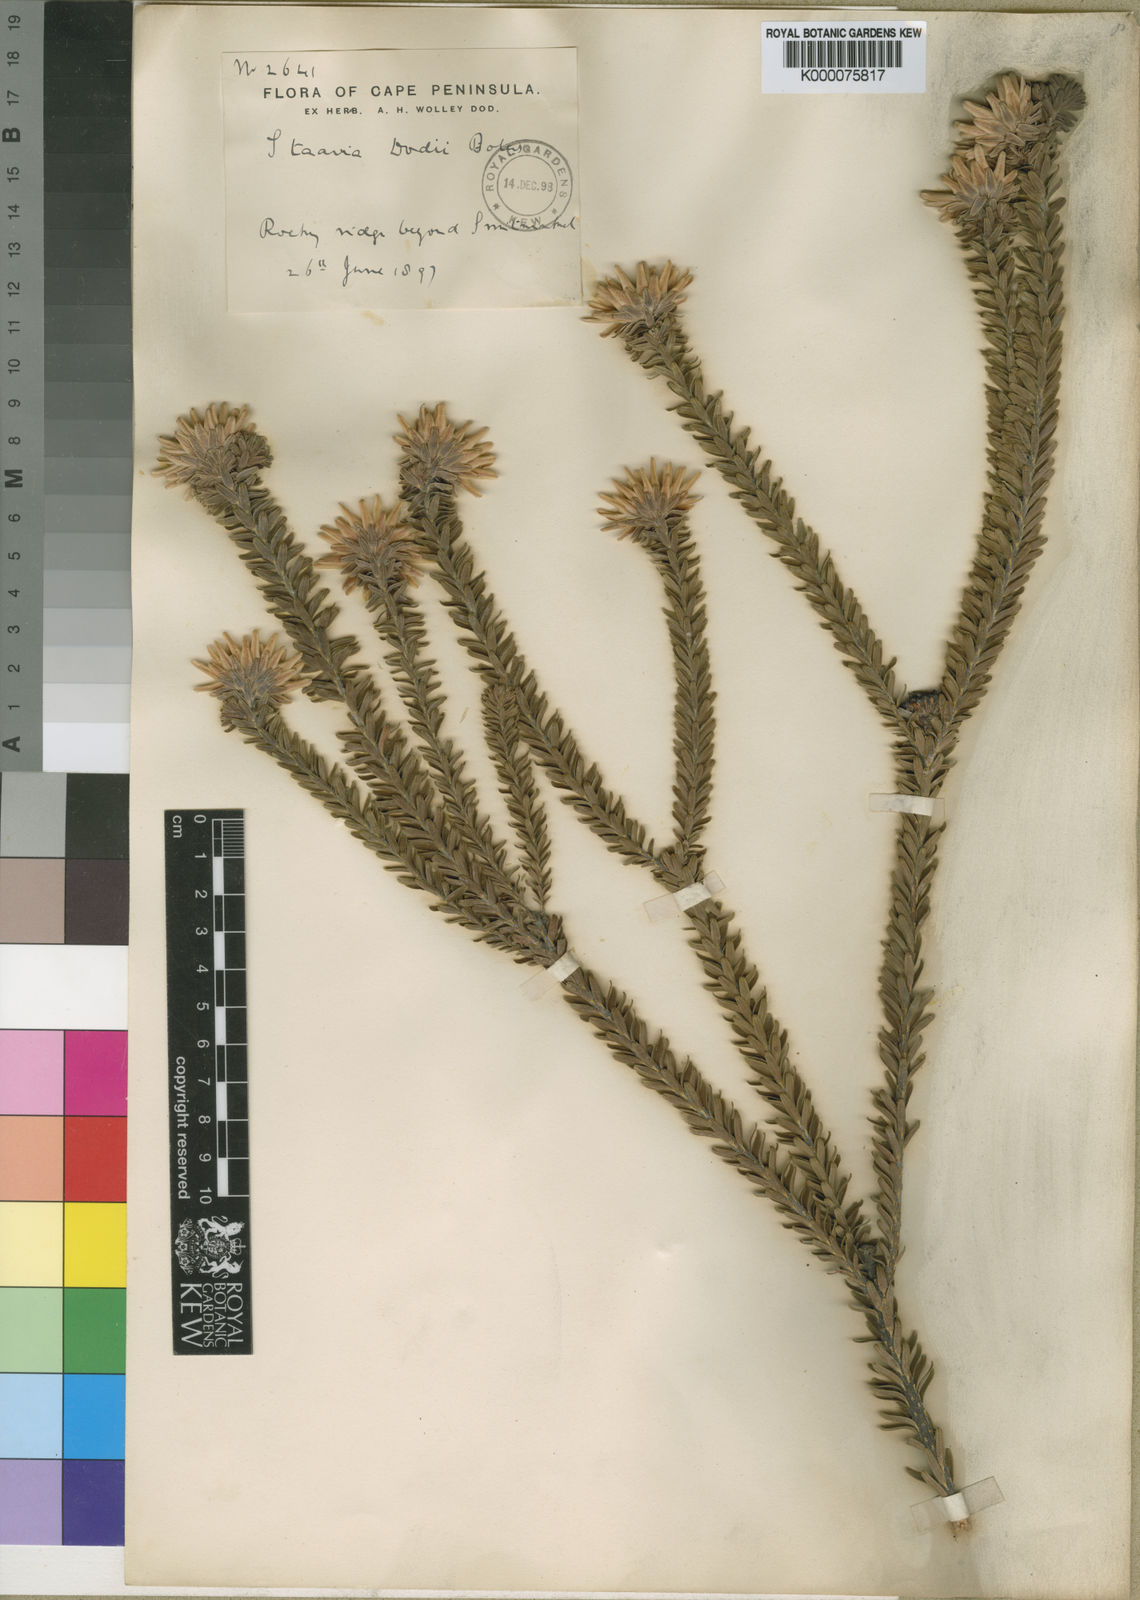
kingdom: Plantae
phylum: Tracheophyta
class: Magnoliopsida
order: Bruniales
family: Bruniaceae
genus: Staavia
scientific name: Staavia dodii
